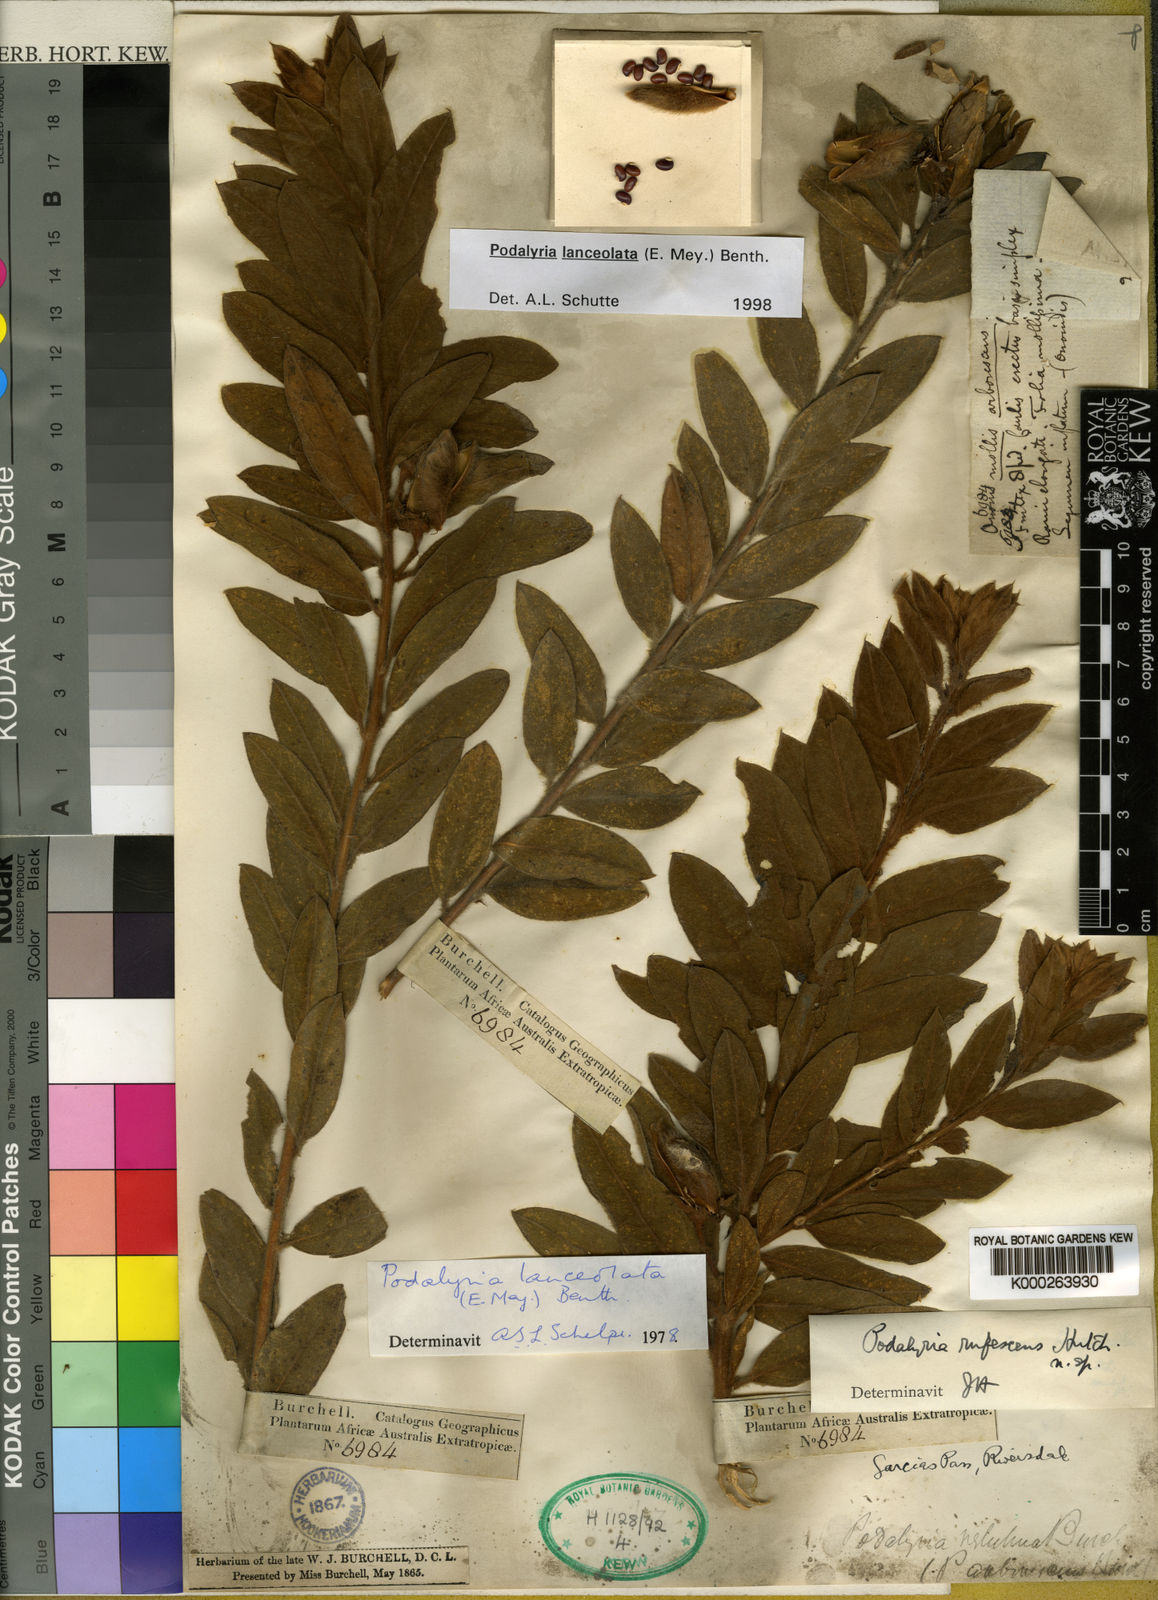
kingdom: Plantae
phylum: Tracheophyta
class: Magnoliopsida
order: Fabales
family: Fabaceae
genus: Podalyria
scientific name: Podalyria lanceolata
